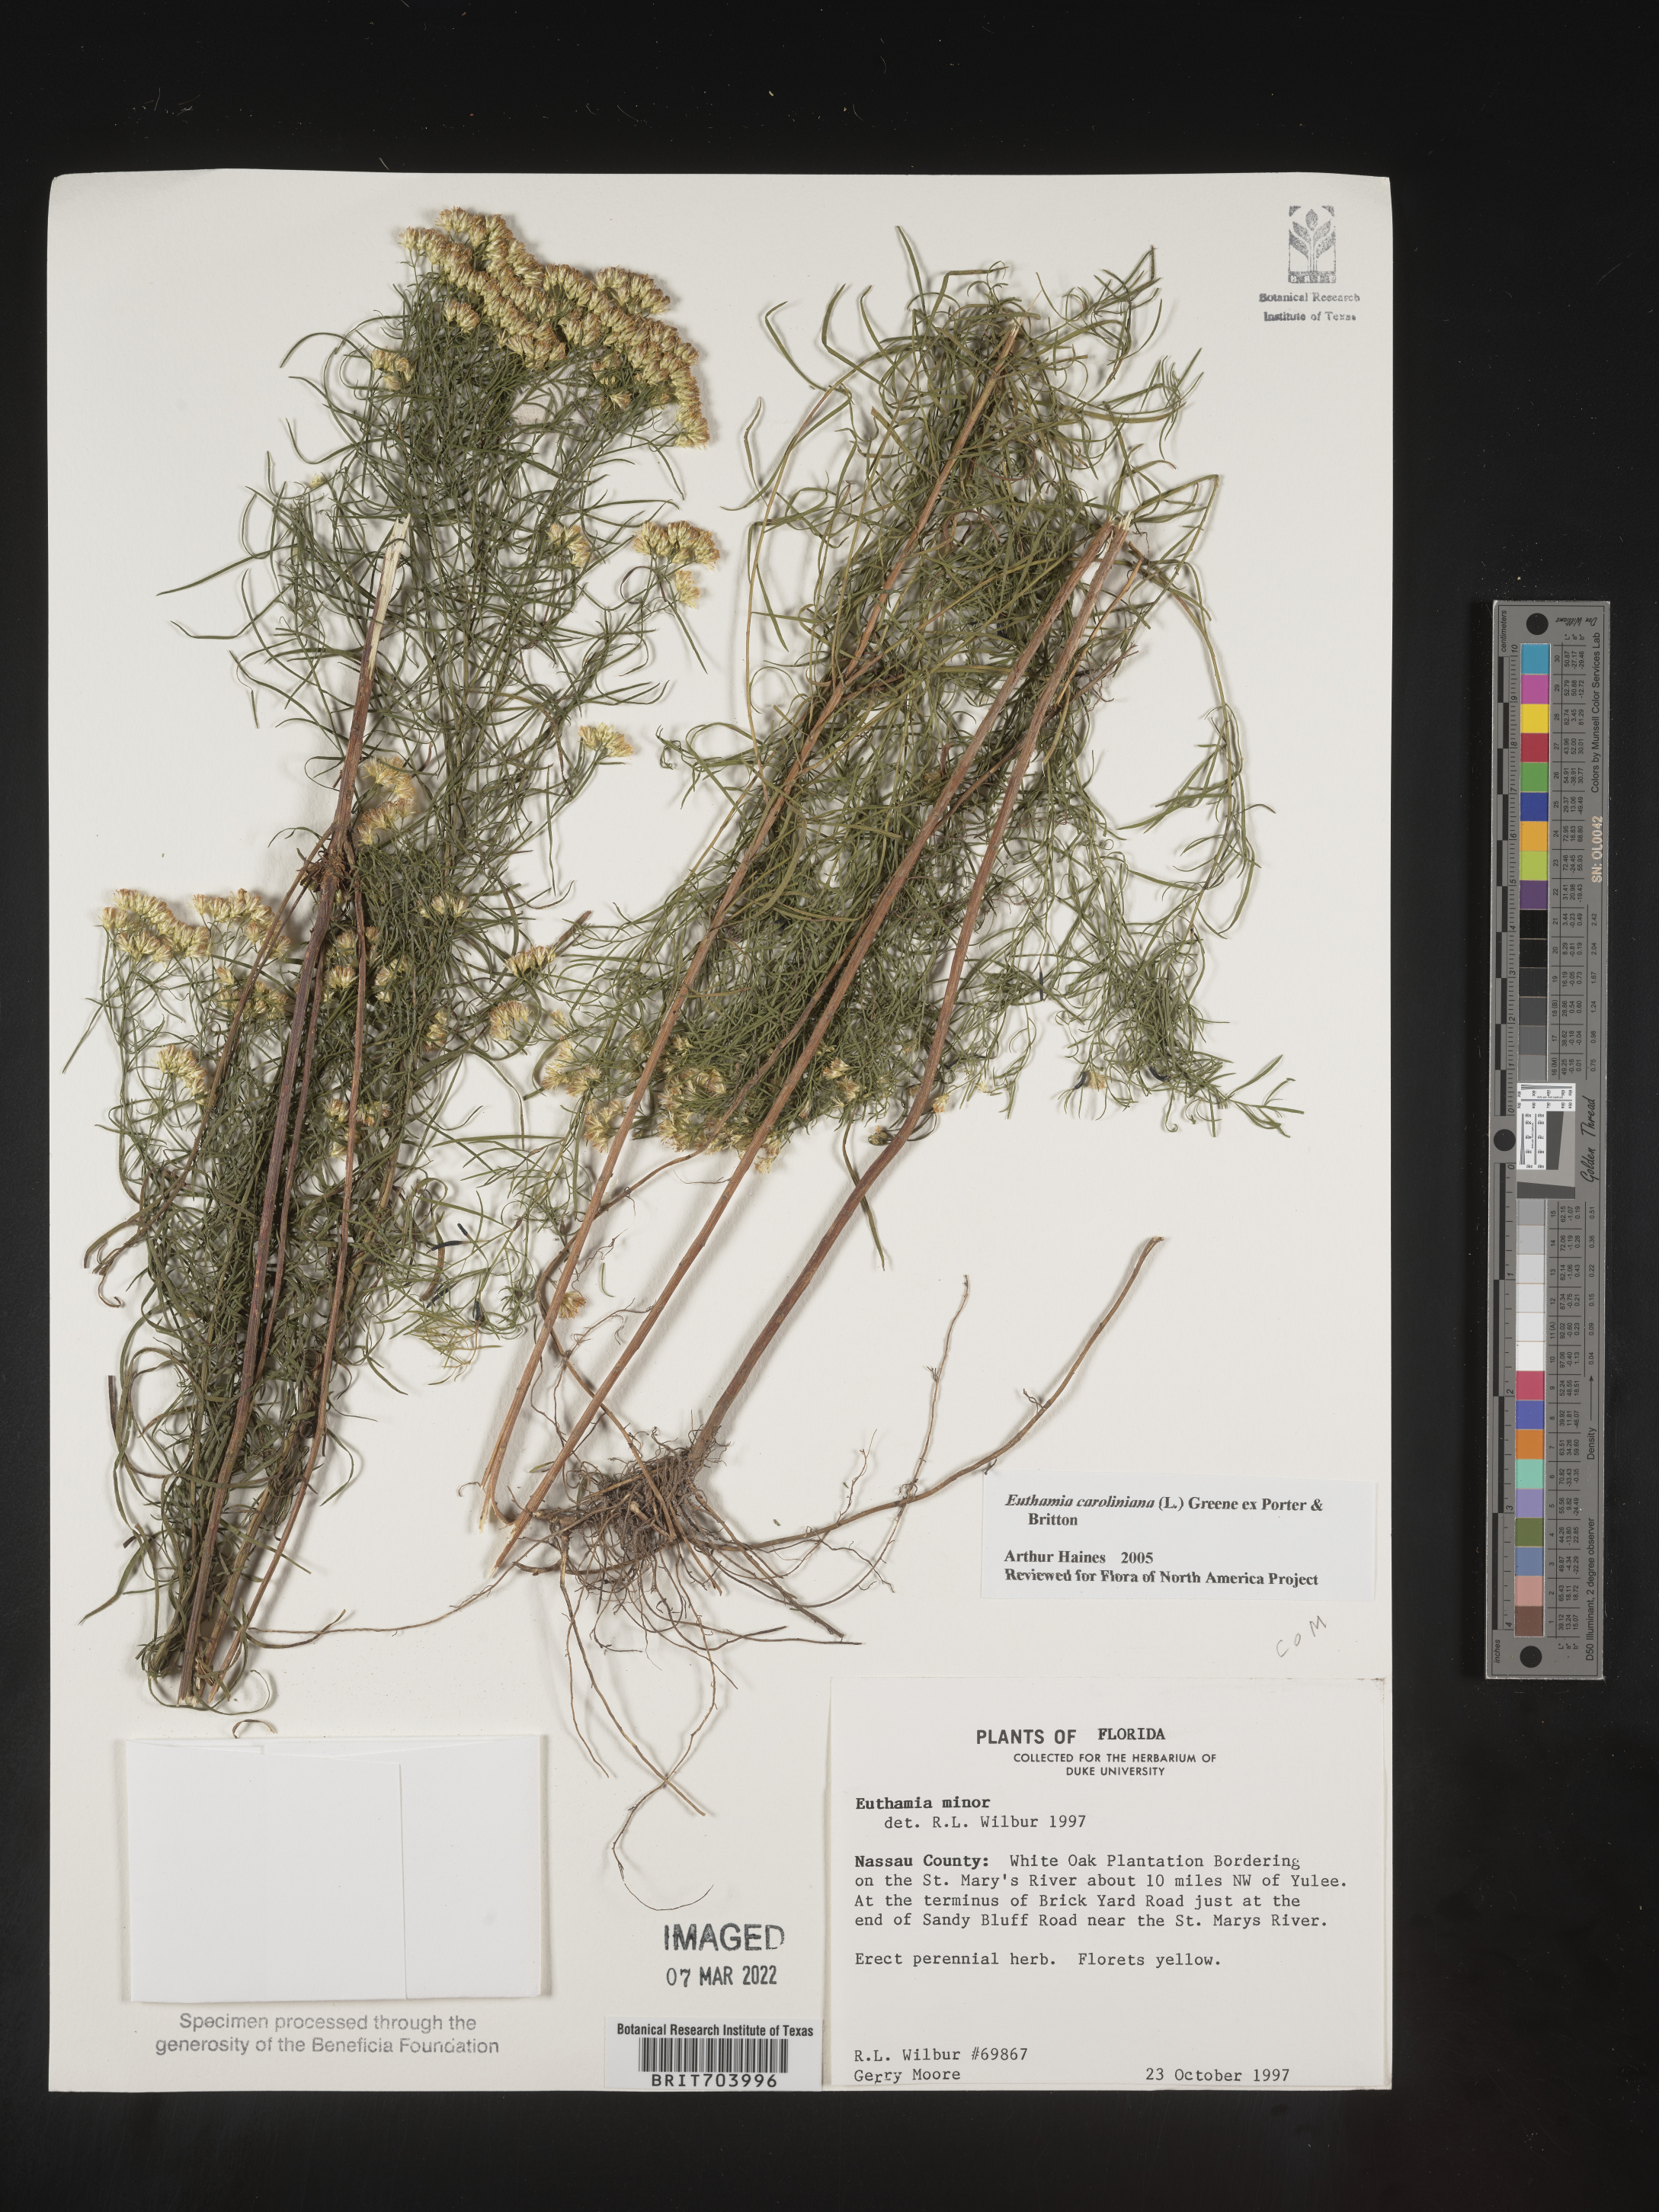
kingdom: Plantae
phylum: Tracheophyta
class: Magnoliopsida
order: Asterales
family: Asteraceae
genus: Euthamia
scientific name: Euthamia caroliniana
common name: Coastal plain goldentop
